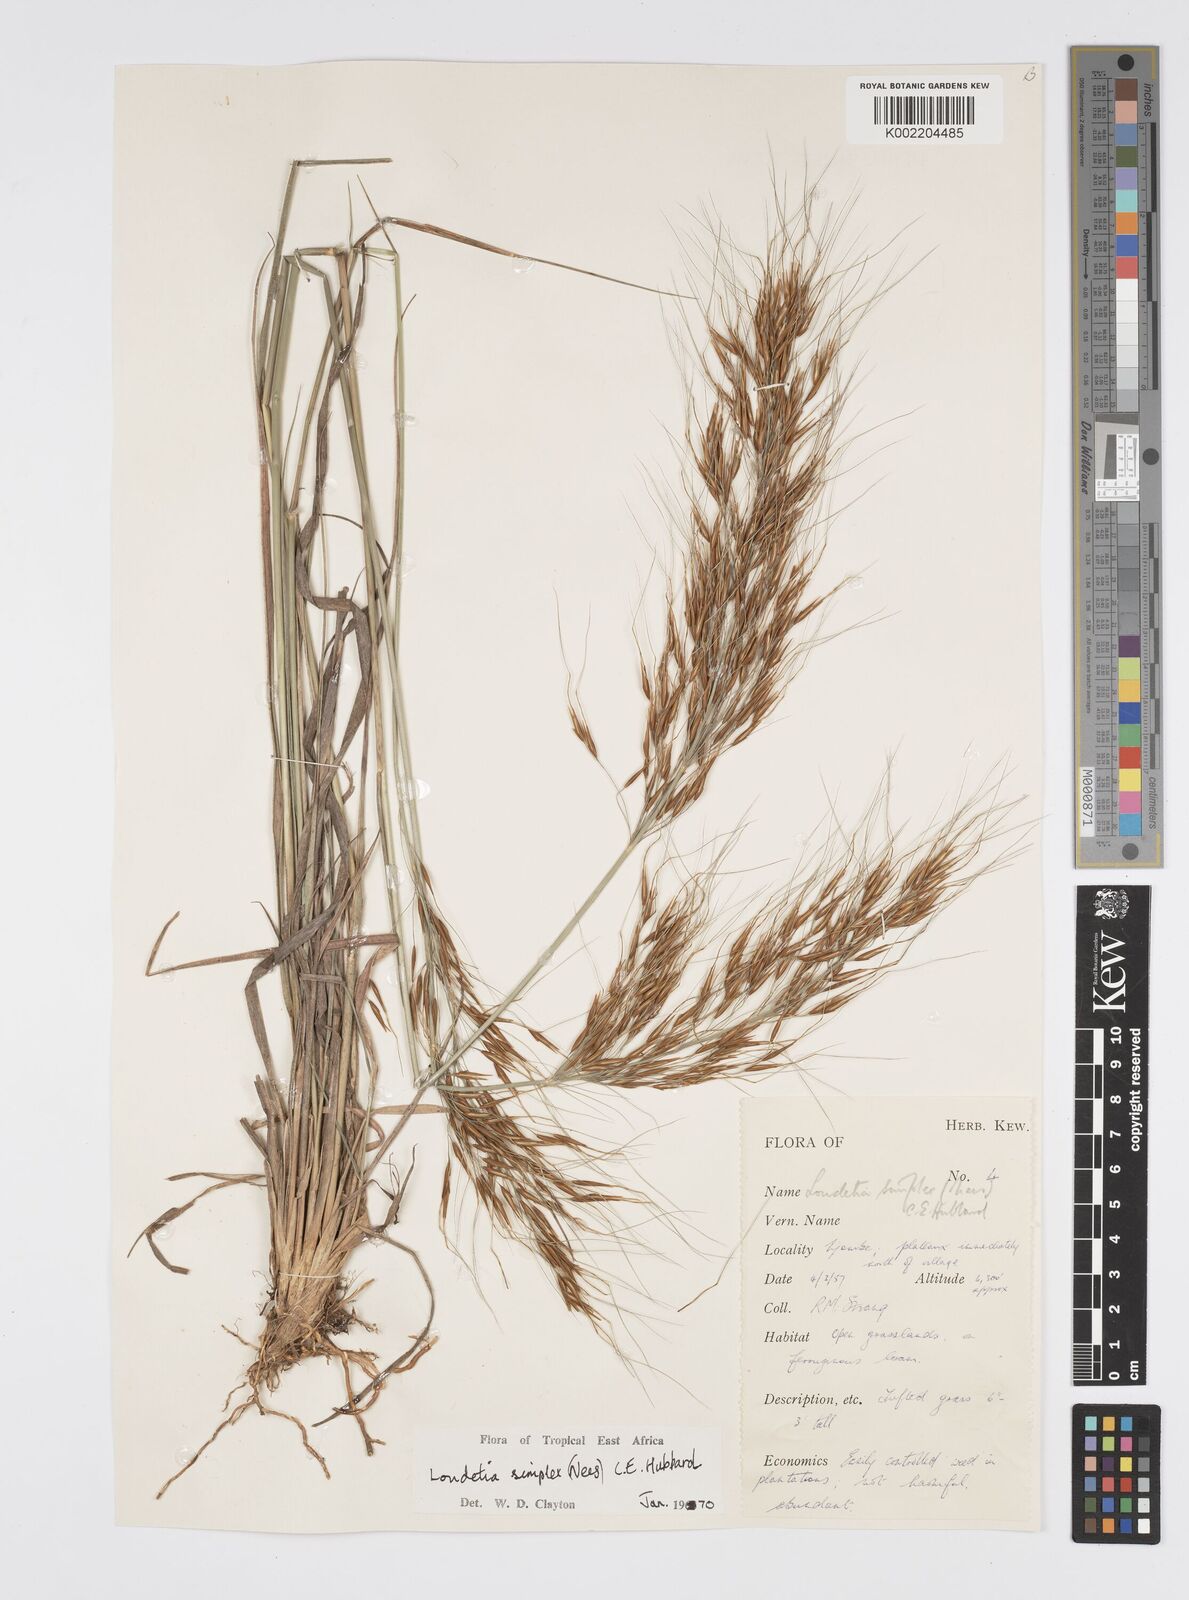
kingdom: Plantae
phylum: Tracheophyta
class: Liliopsida
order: Poales
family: Poaceae
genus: Loudetia
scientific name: Loudetia simplex
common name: Common russet grass
